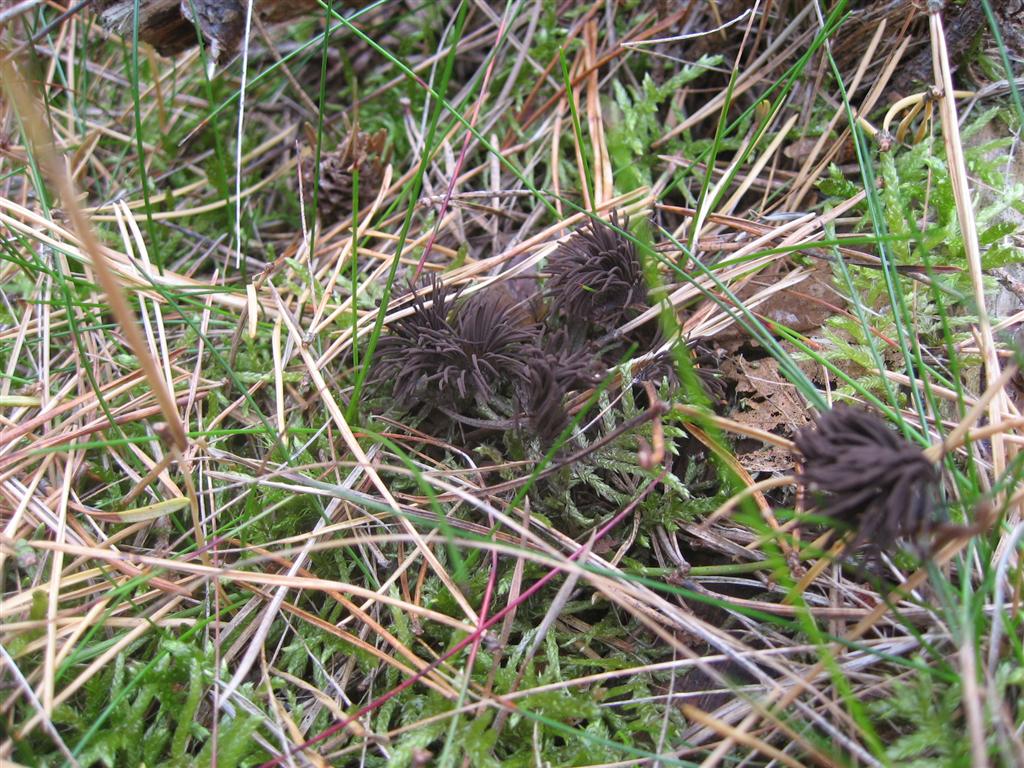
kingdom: Protozoa
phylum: Mycetozoa
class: Myxomycetes
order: Stemonitidales
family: Stemonitidaceae
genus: Stemonitis
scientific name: Stemonitis fusca
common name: sodbrun støvkølle
